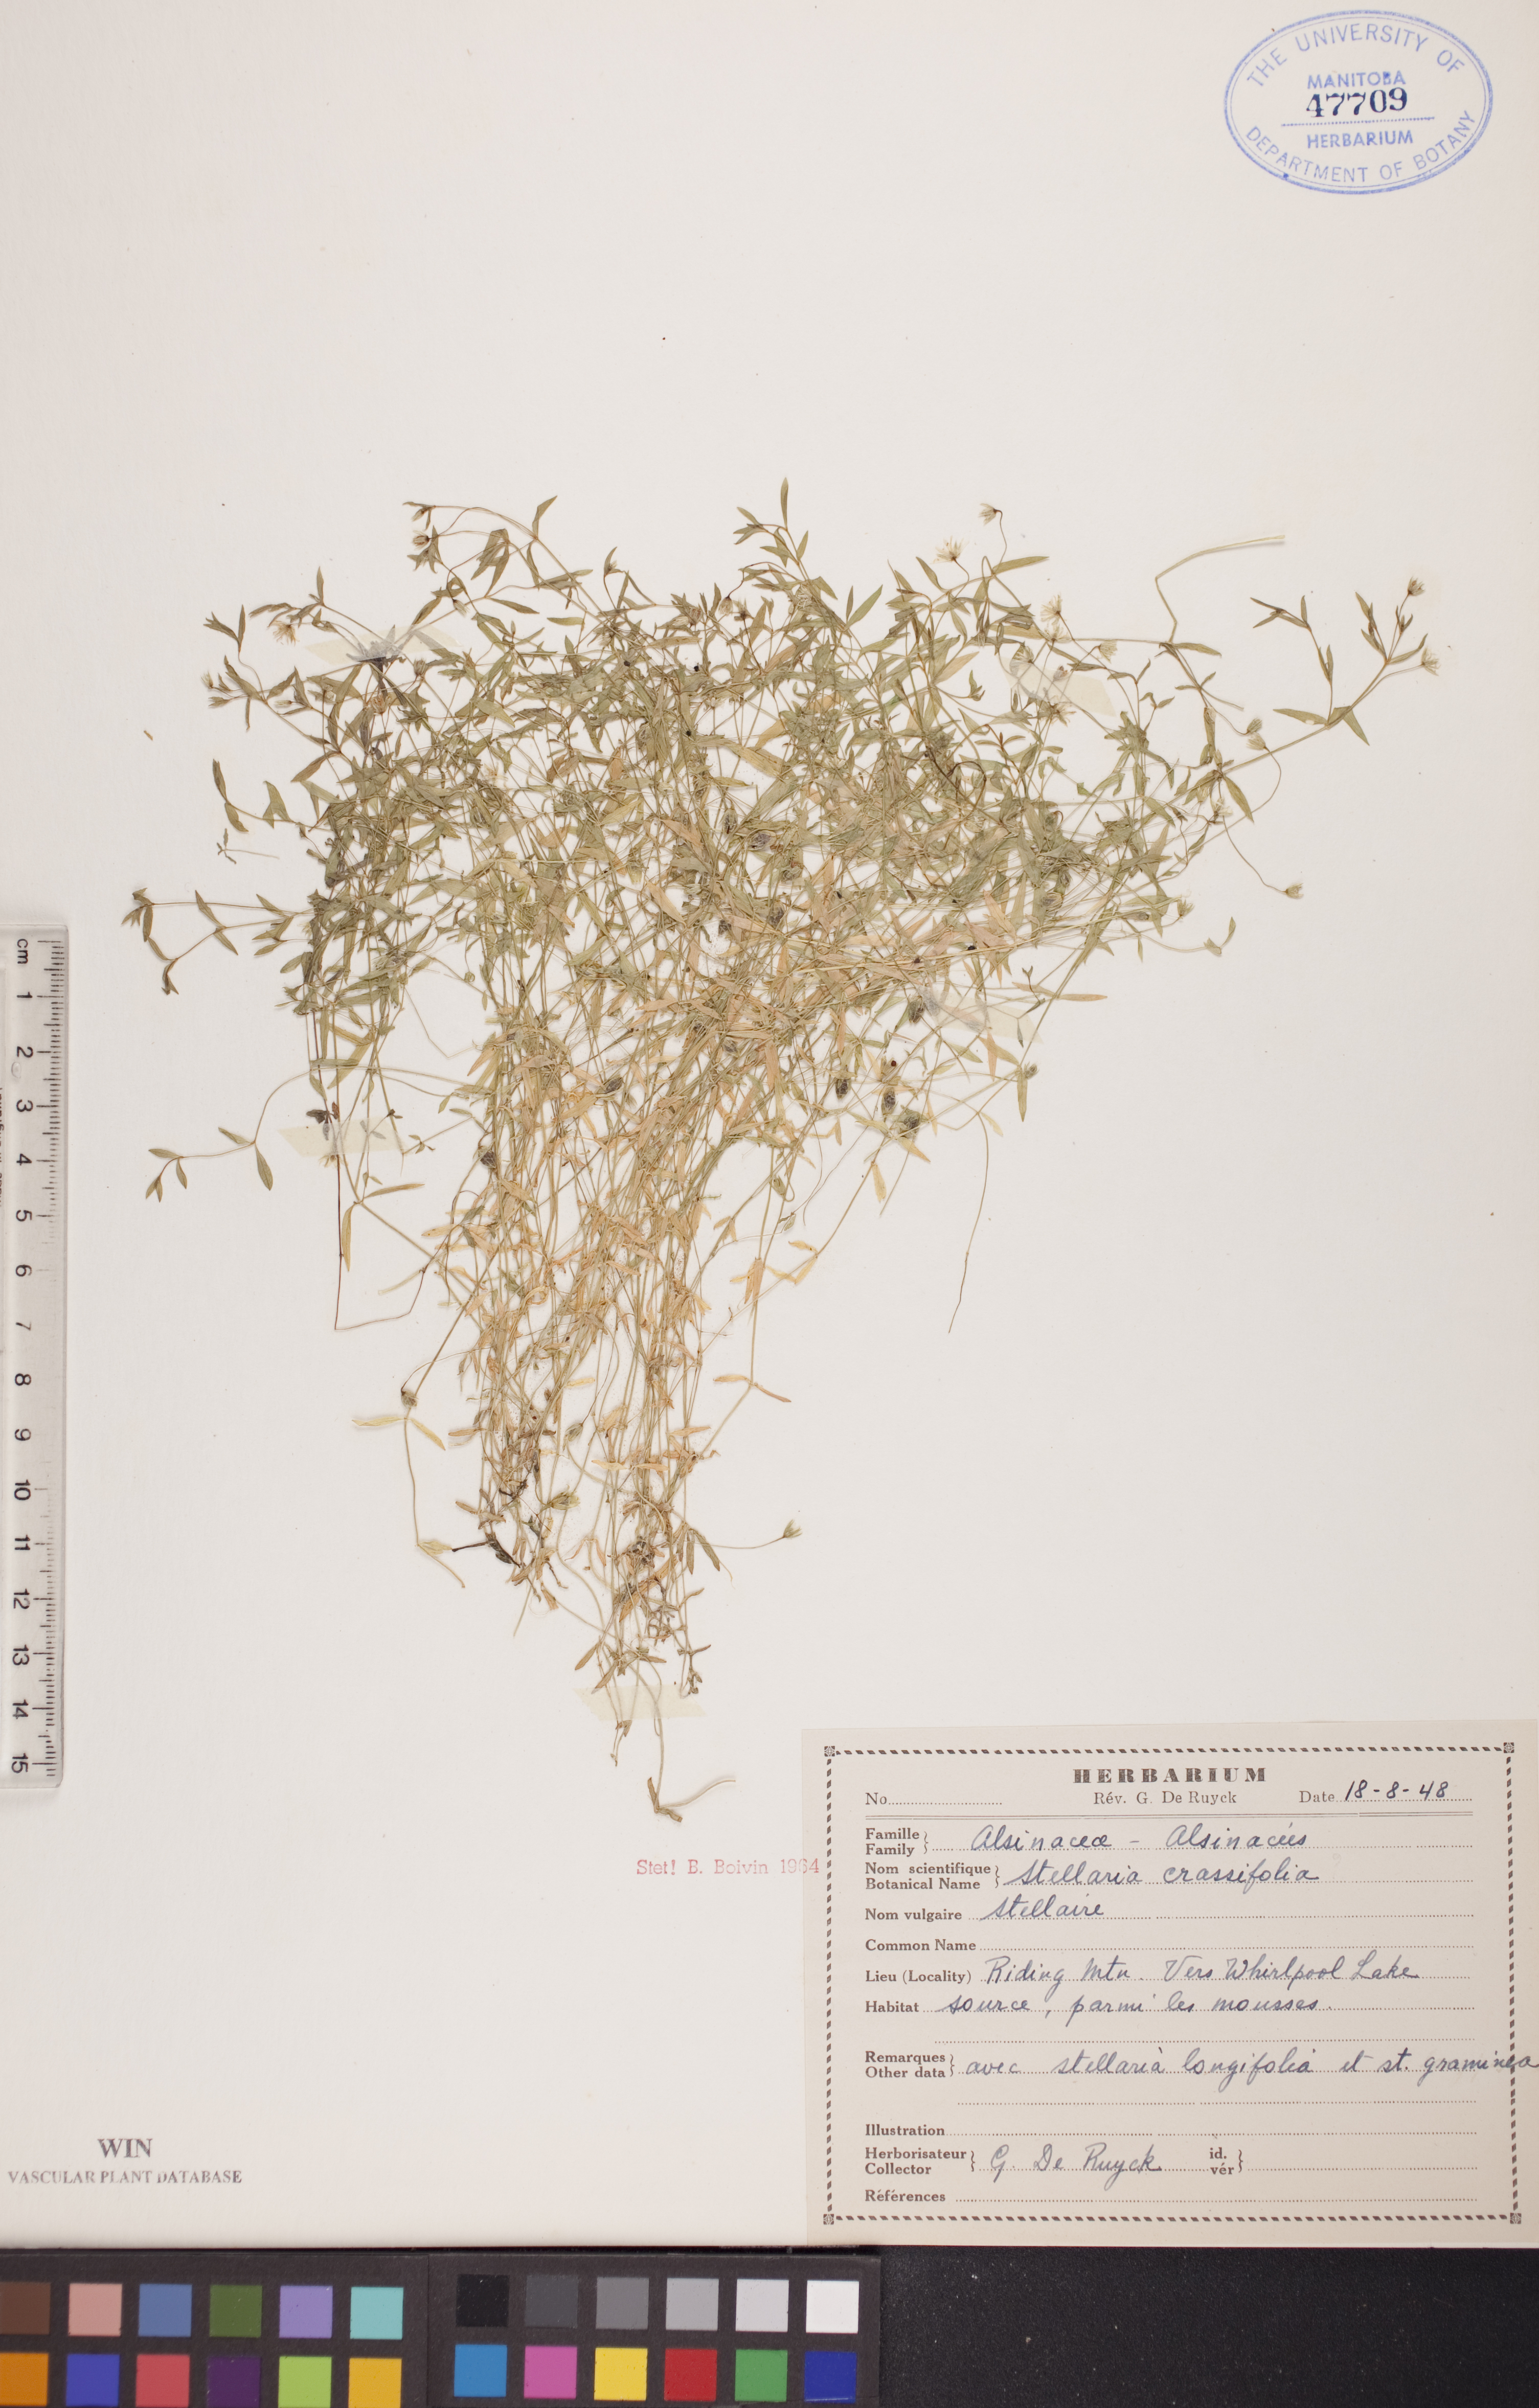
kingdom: Plantae
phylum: Tracheophyta
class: Magnoliopsida
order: Caryophyllales
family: Caryophyllaceae
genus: Stellaria
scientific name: Stellaria crassifolia
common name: Fleshy starwort
